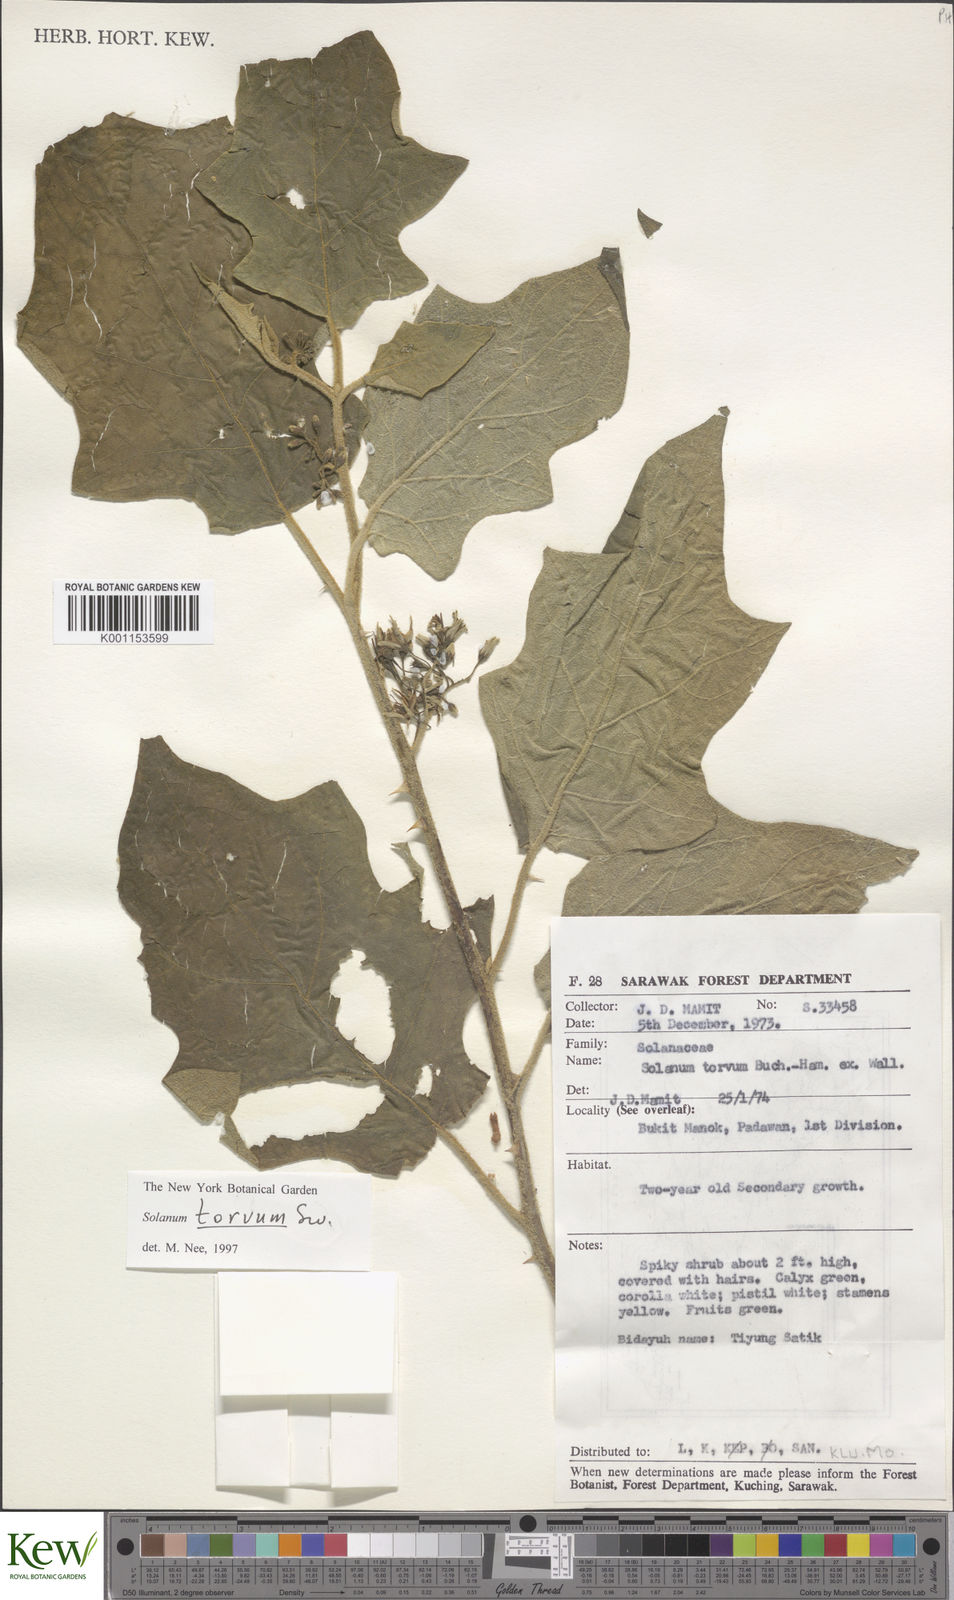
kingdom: Plantae
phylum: Tracheophyta
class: Magnoliopsida
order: Solanales
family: Solanaceae
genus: Solanum
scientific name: Solanum torvum
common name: Turkey berry
